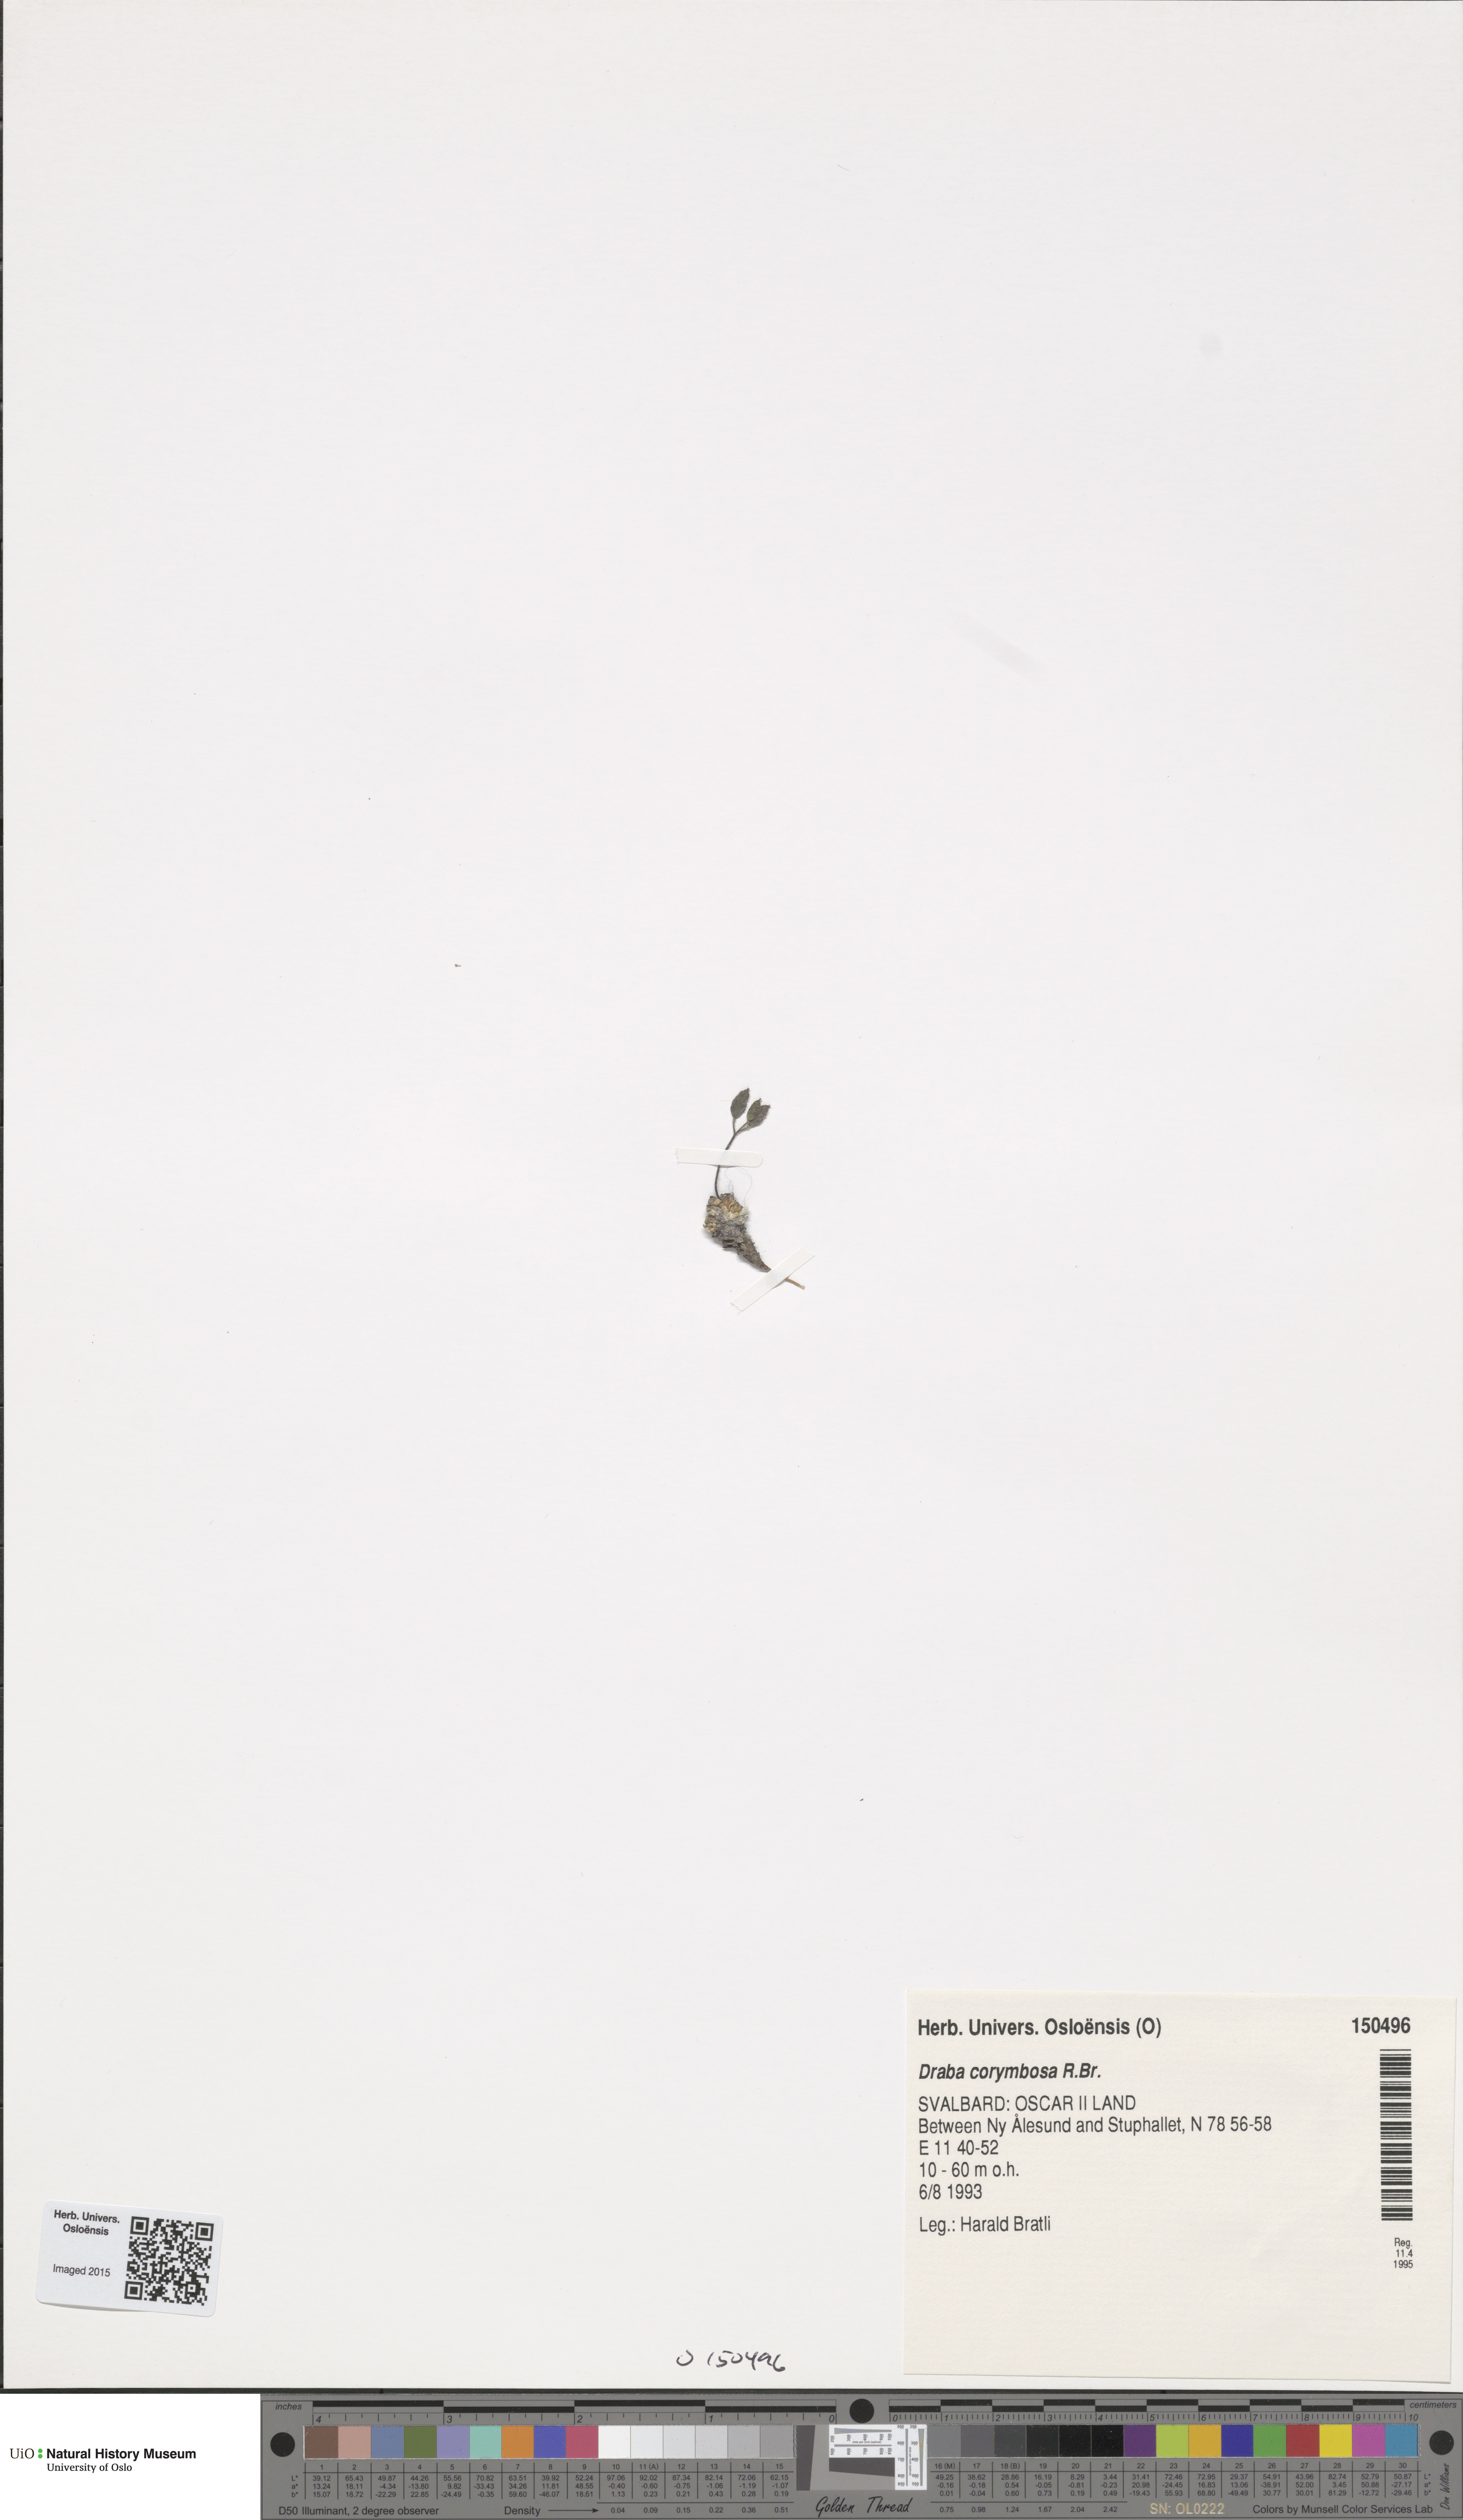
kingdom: Plantae
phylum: Tracheophyta
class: Magnoliopsida
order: Brassicales
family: Brassicaceae
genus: Draba
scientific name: Draba corymbosa
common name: Cushion whitlow-grass
